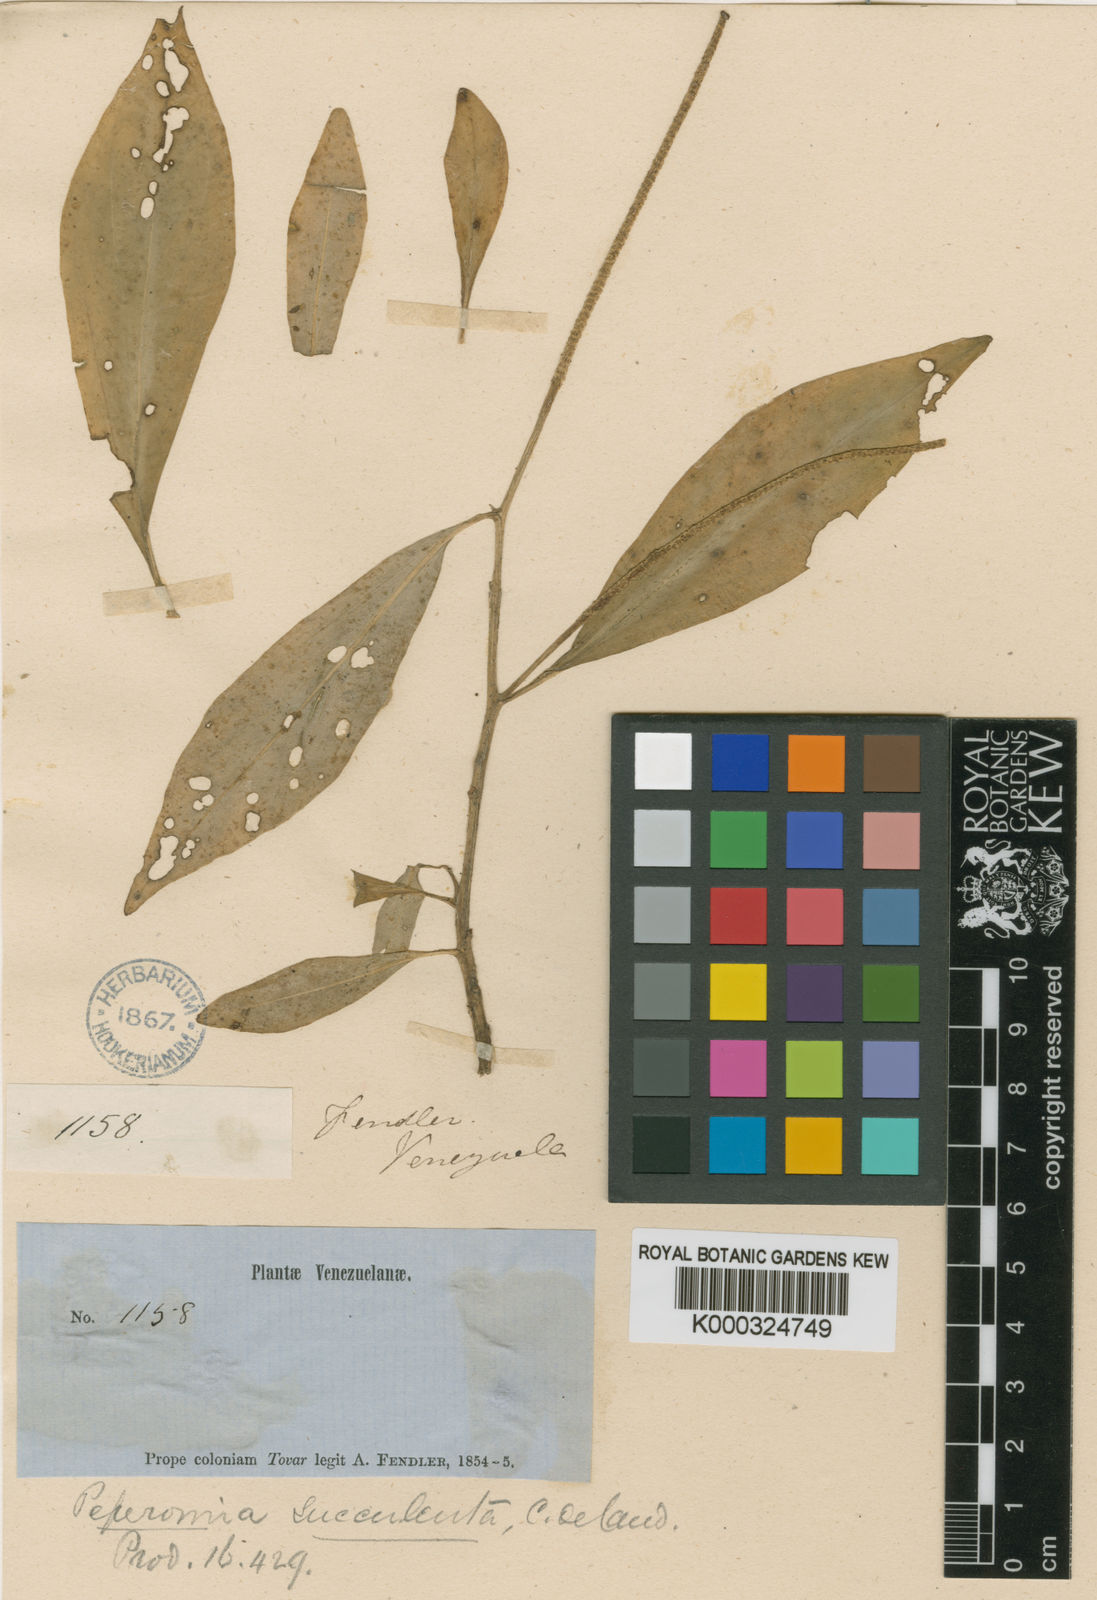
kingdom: Plantae
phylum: Tracheophyta
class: Magnoliopsida
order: Piperales
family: Piperaceae
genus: Peperomia
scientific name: Peperomia succulenta
